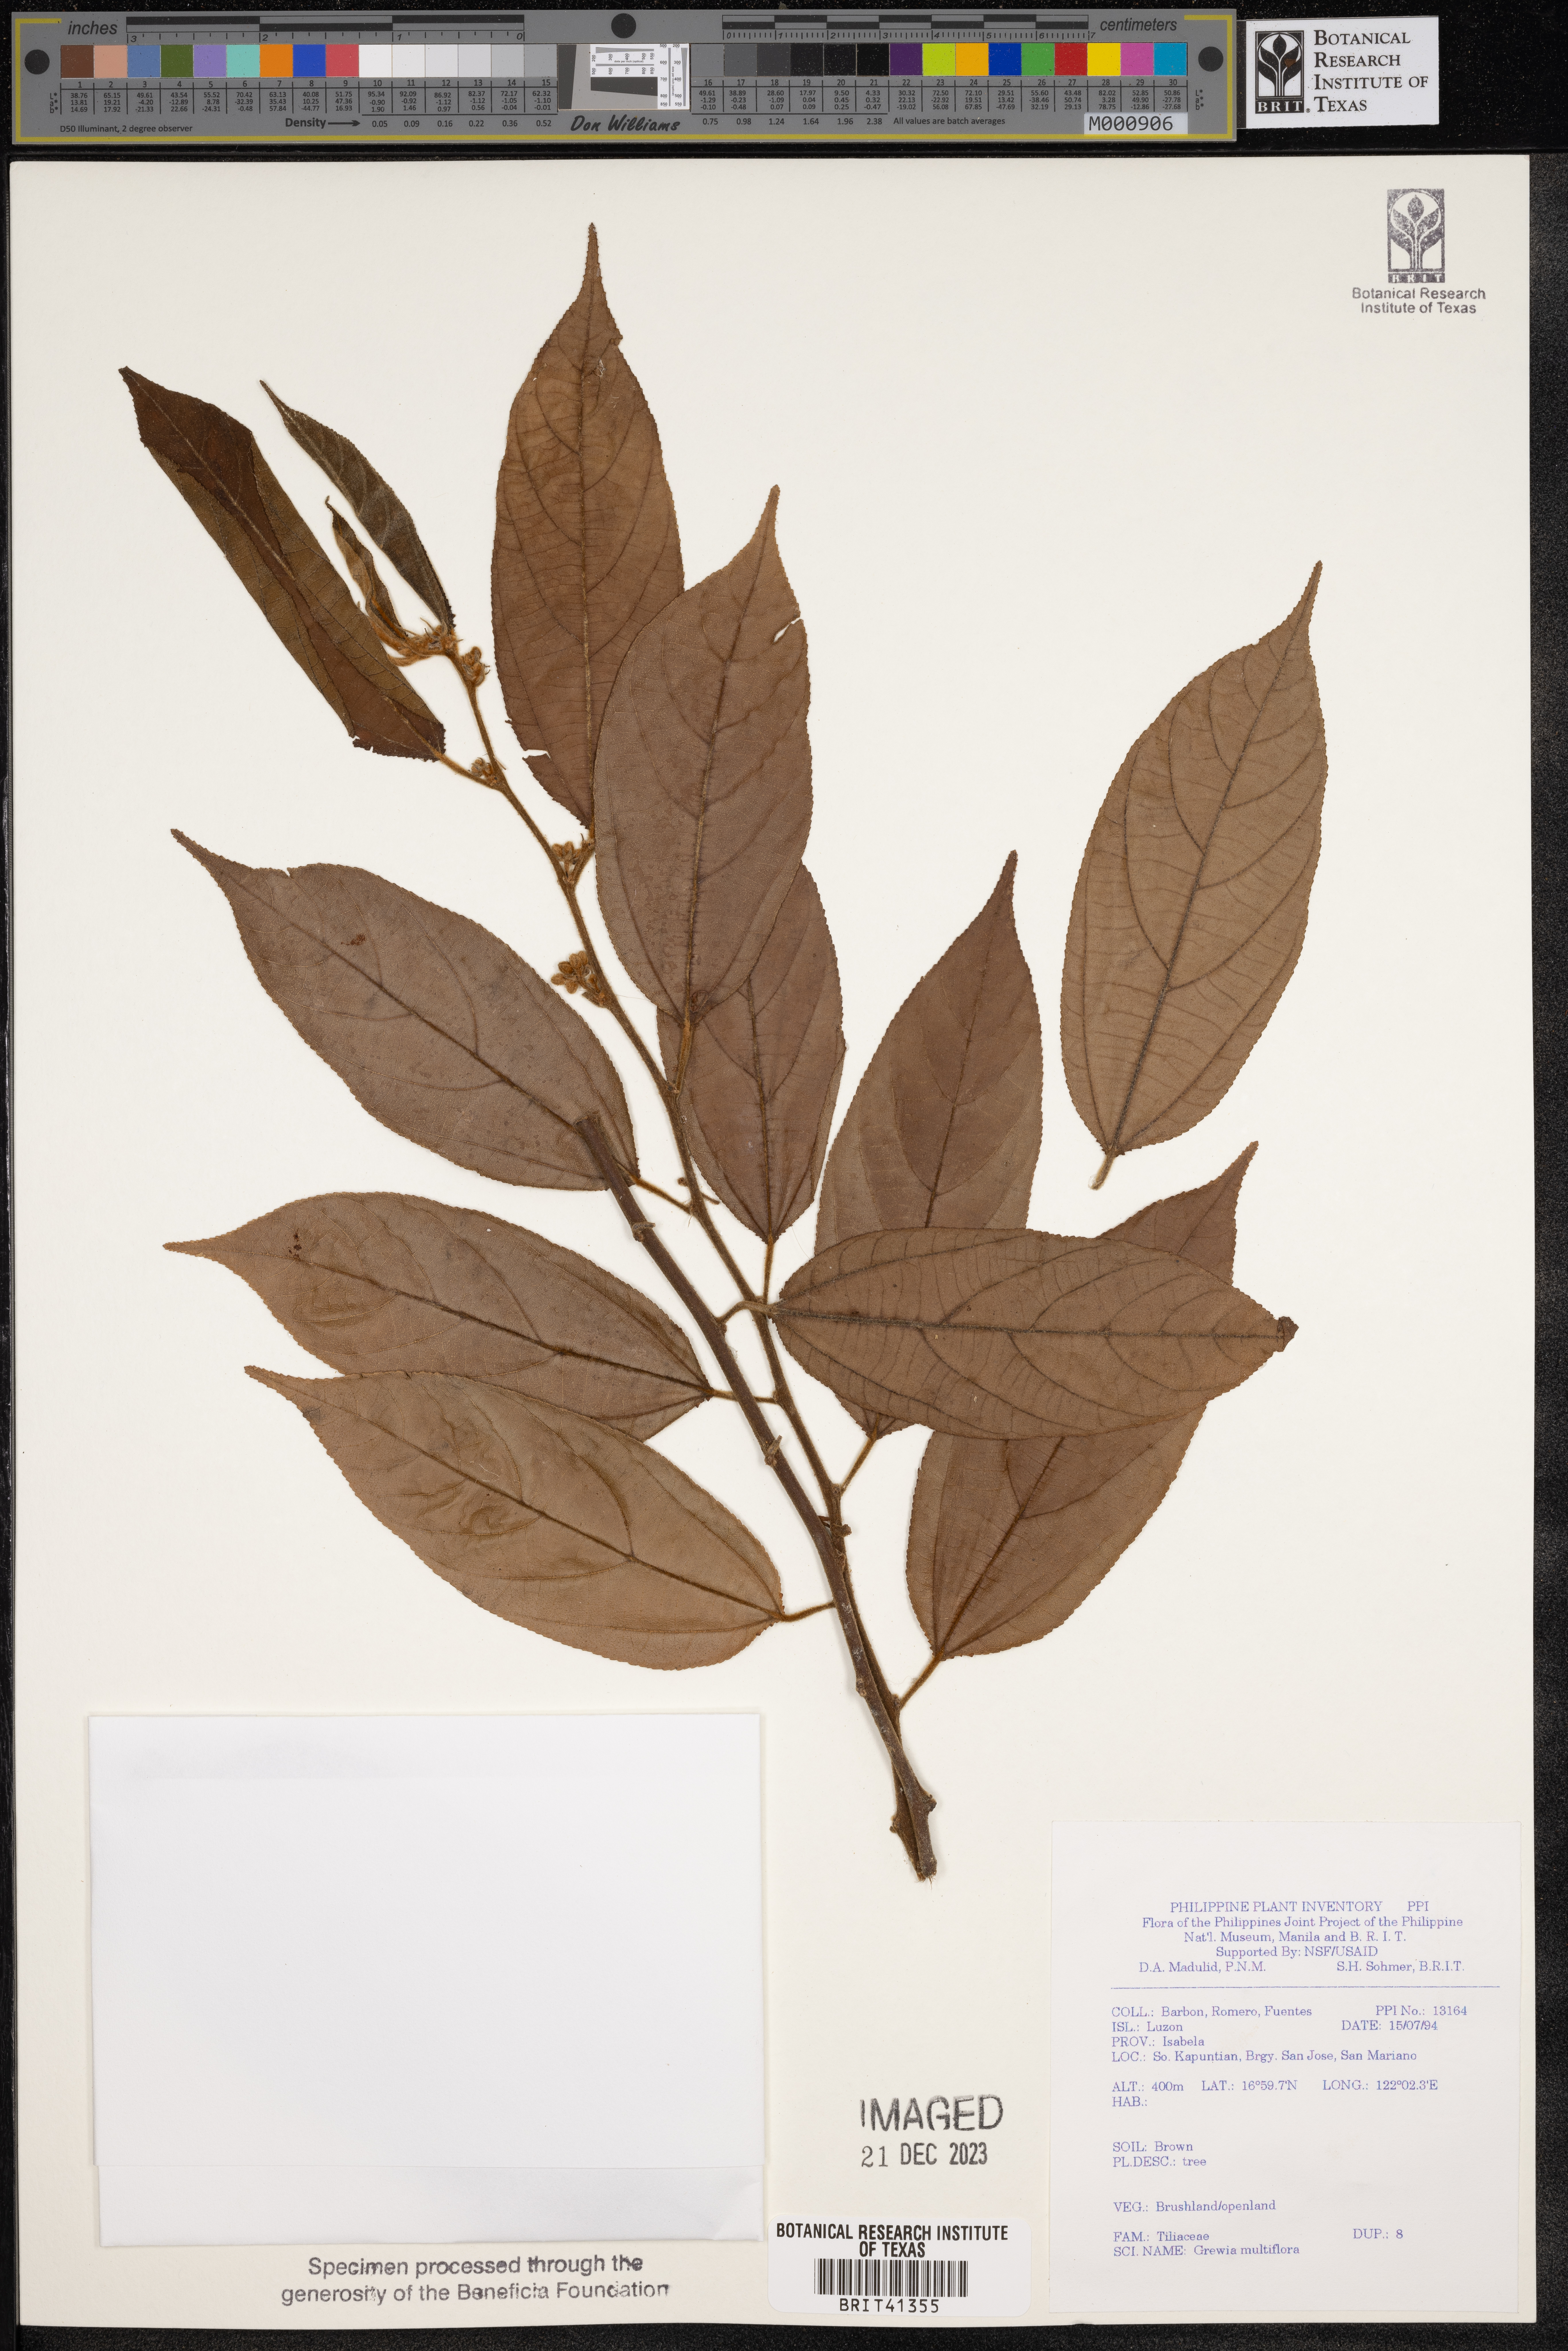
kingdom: Plantae
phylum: Tracheophyta
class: Magnoliopsida
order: Malvales
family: Malvaceae
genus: Grewia
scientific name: Grewia multiflora
